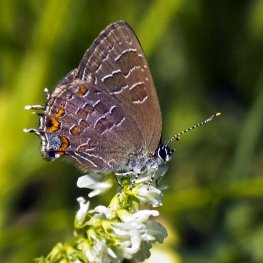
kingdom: Animalia
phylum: Arthropoda
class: Insecta
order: Lepidoptera
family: Lycaenidae
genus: Satyrium
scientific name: Satyrium liparops
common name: Striped Hairstreak
